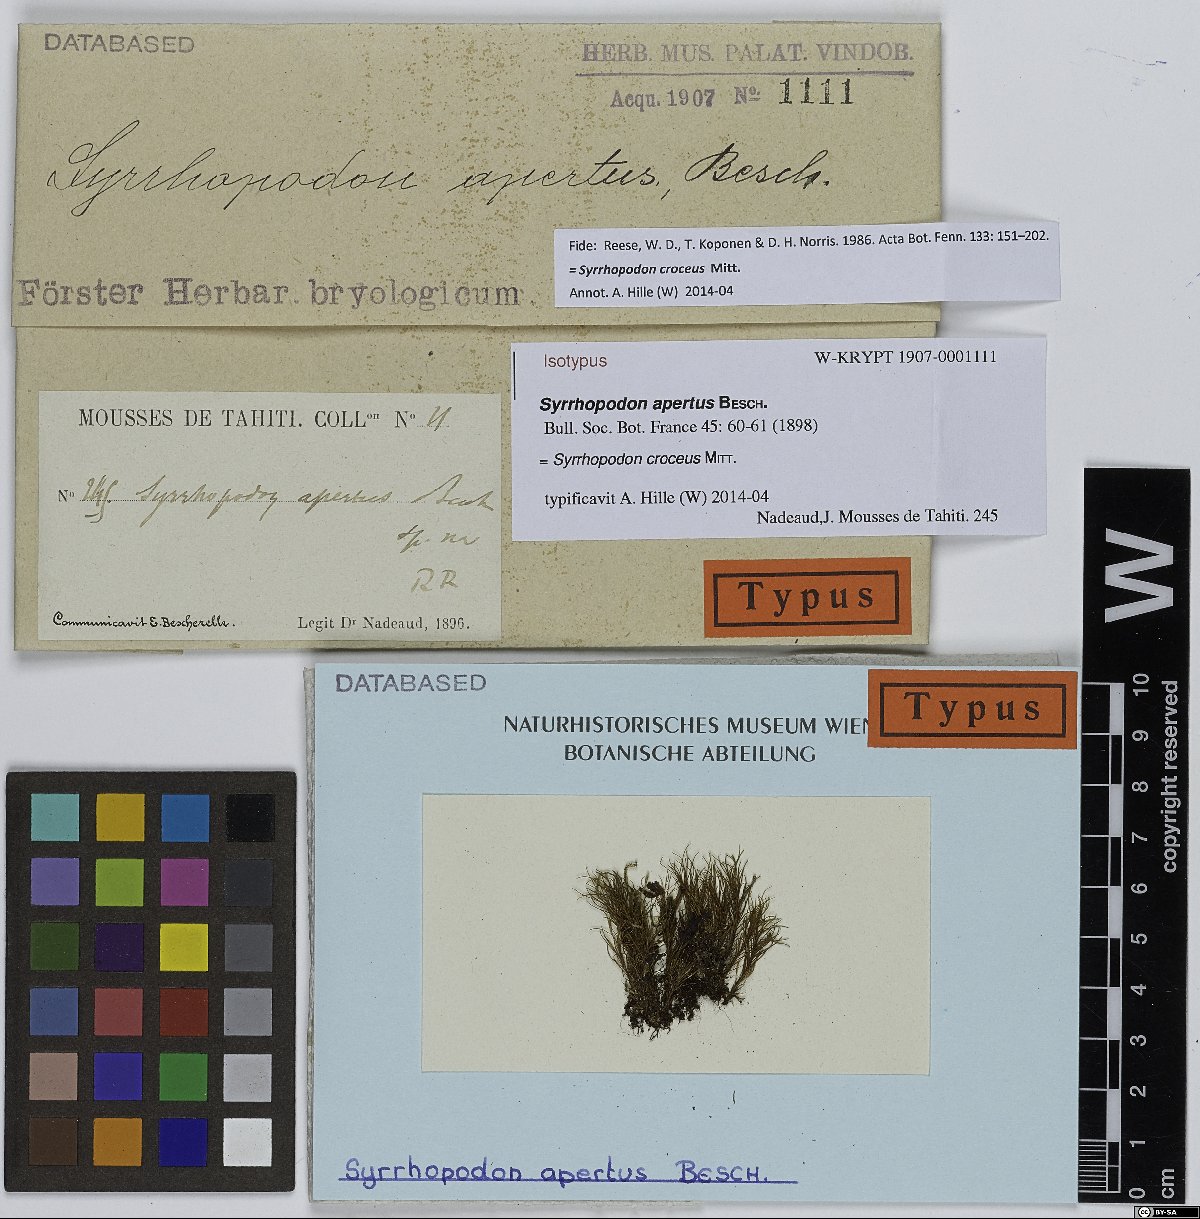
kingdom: Plantae
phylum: Bryophyta
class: Bryopsida
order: Dicranales
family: Calymperaceae
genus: Syrrhopodon
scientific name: Syrrhopodon croceus
